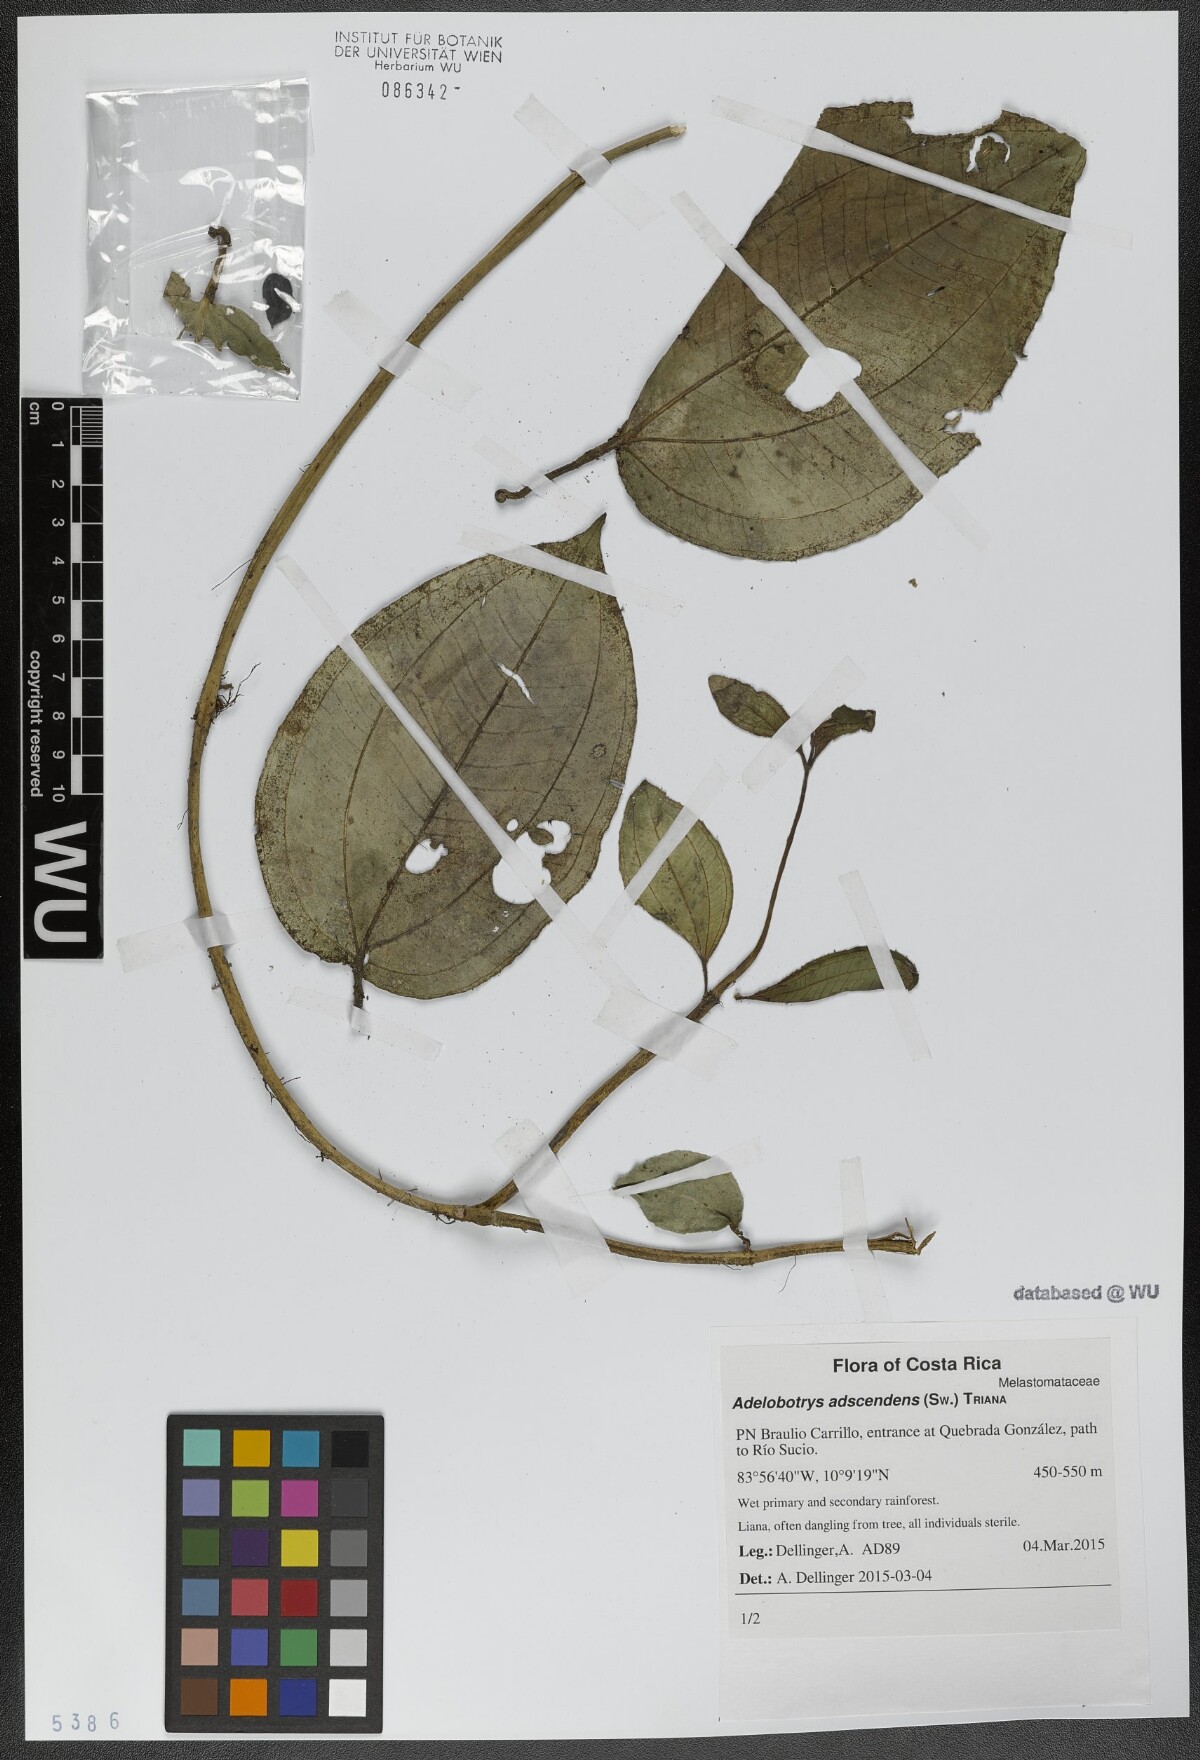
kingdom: Plantae
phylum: Tracheophyta
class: Magnoliopsida
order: Myrtales
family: Melastomataceae
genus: Adelobotrys
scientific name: Adelobotrys adscendens
